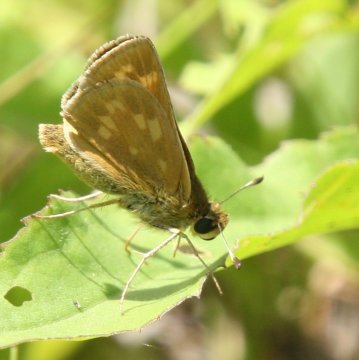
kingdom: Animalia
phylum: Arthropoda
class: Insecta
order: Lepidoptera
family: Hesperiidae
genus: Hesperia
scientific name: Hesperia sassacus
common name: Sassacus Skipper
